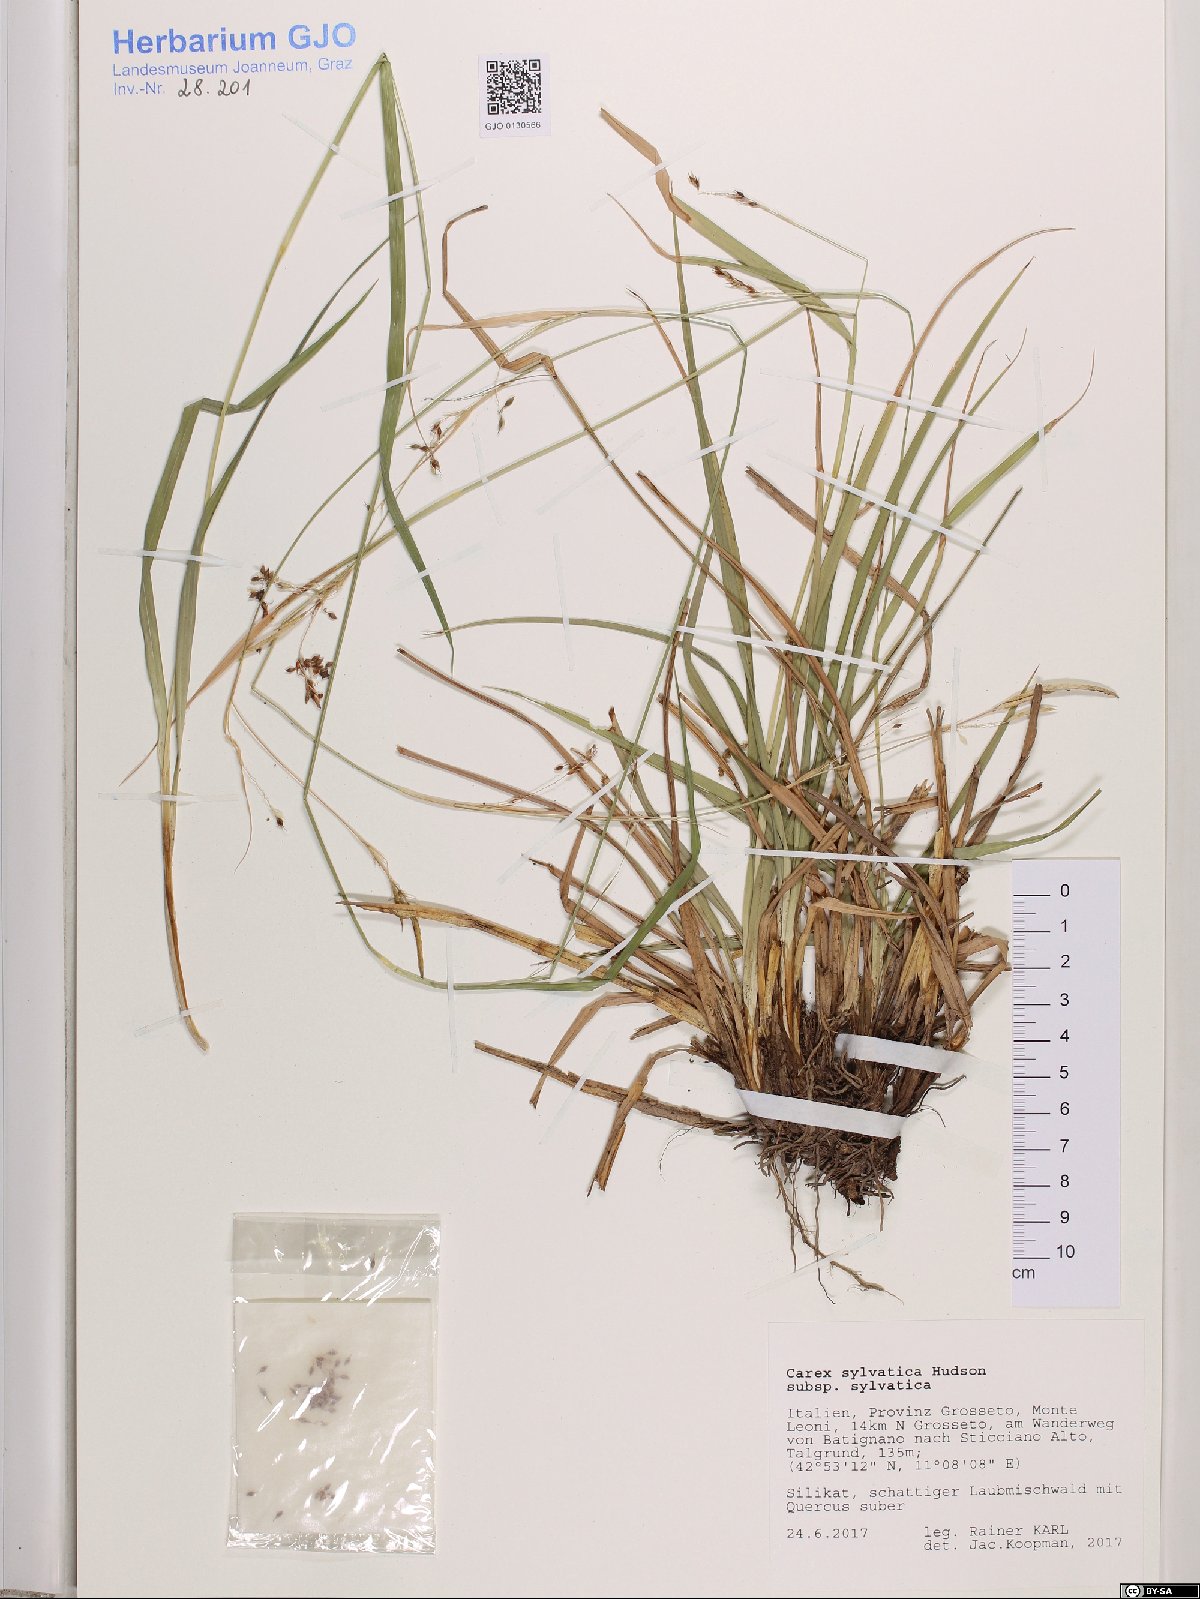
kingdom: Plantae
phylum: Tracheophyta
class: Liliopsida
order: Poales
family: Cyperaceae
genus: Carex
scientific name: Carex sylvatica
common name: Wood-sedge
